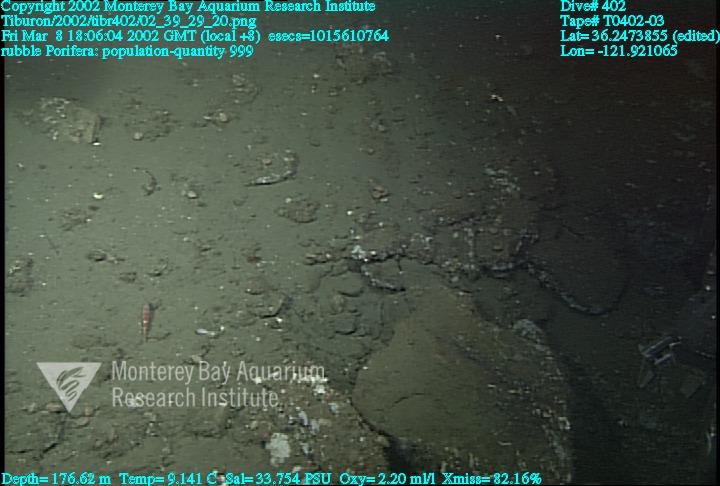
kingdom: Animalia
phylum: Porifera
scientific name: Porifera
